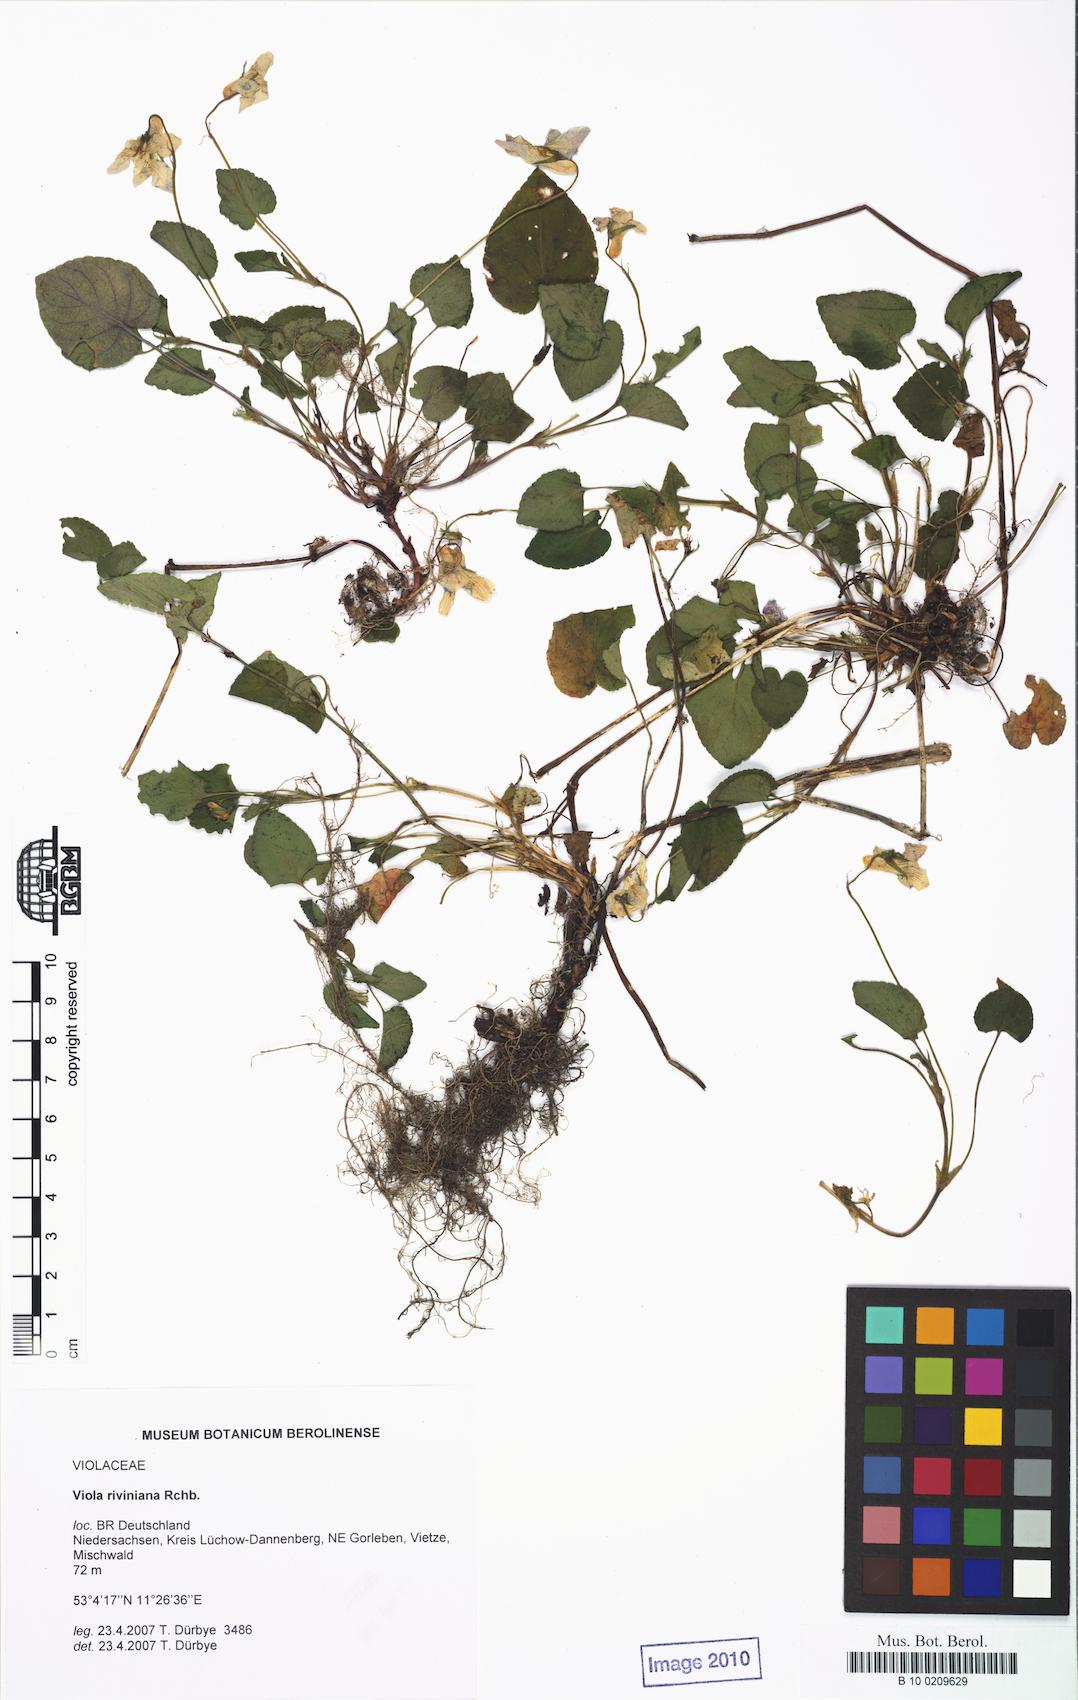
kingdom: Plantae
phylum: Tracheophyta
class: Magnoliopsida
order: Malpighiales
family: Violaceae
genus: Viola
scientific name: Viola riviniana
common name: Common dog-violet
